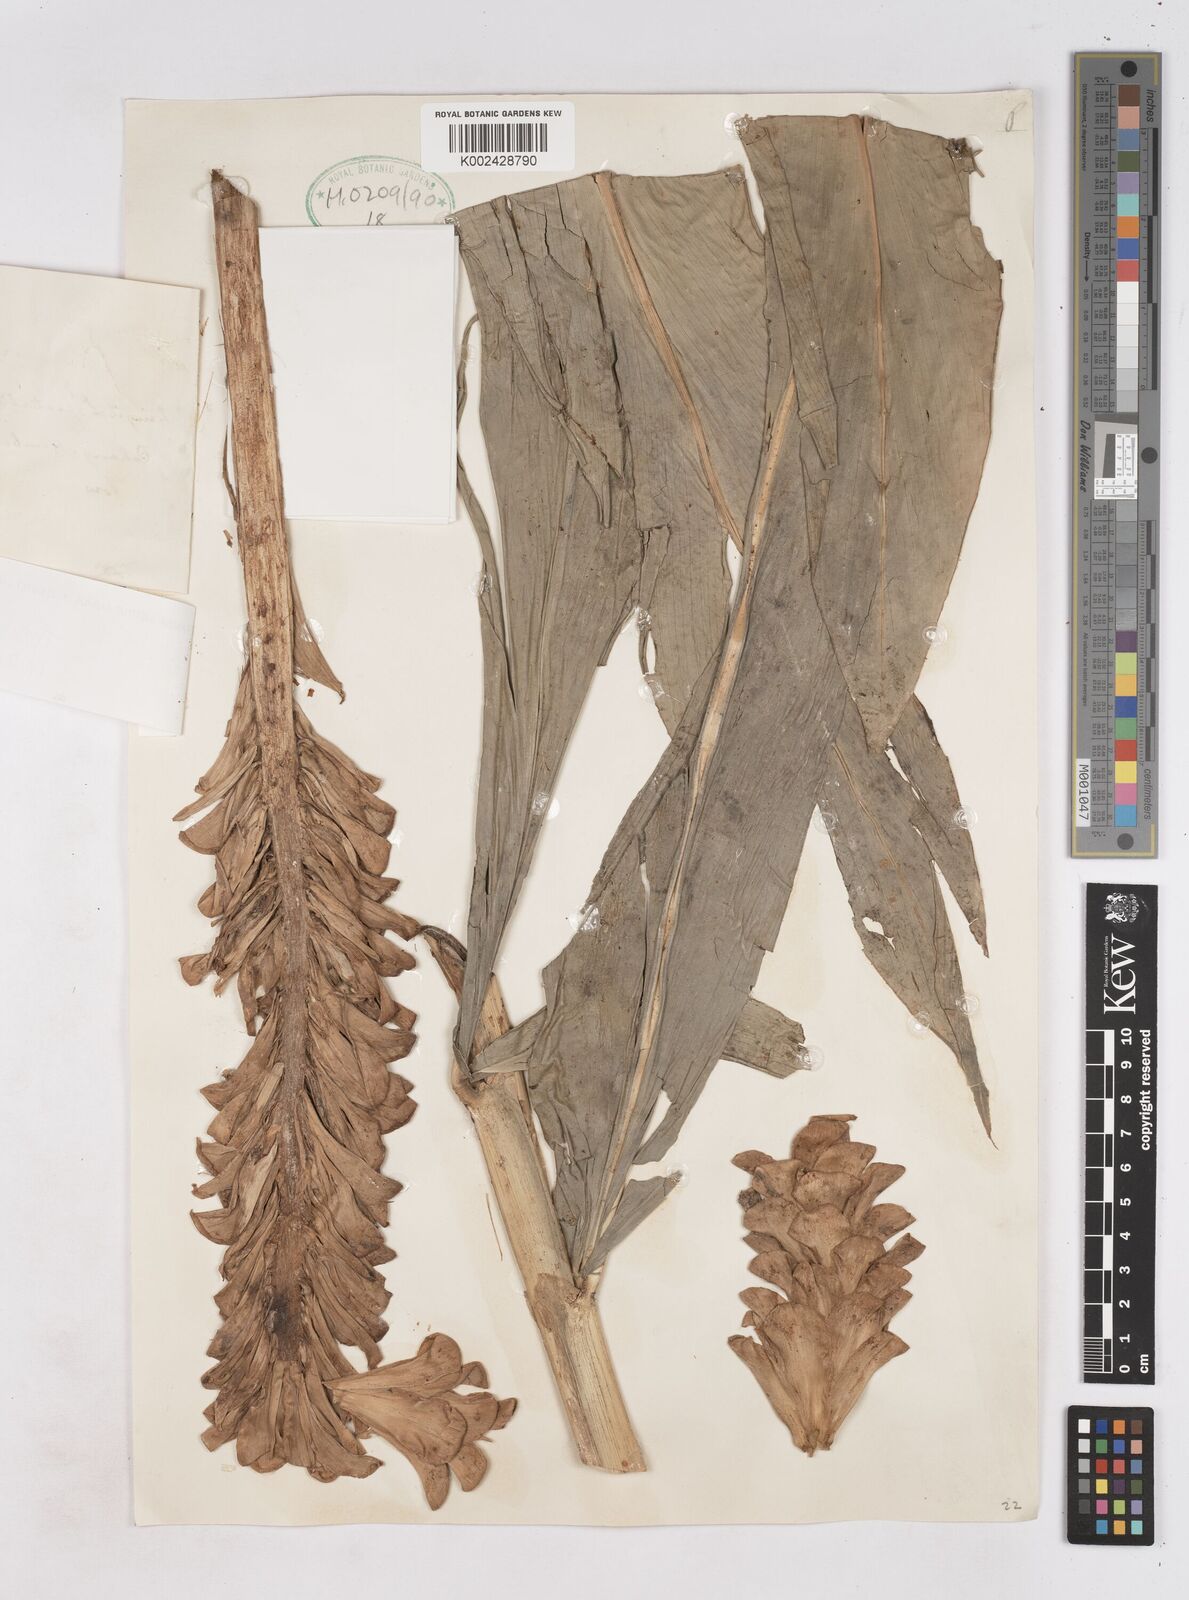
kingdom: Plantae
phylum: Tracheophyta
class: Liliopsida
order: Zingiberales
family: Zingiberaceae
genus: Zingiber
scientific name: Zingiber spectabile
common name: Beehive ginger
